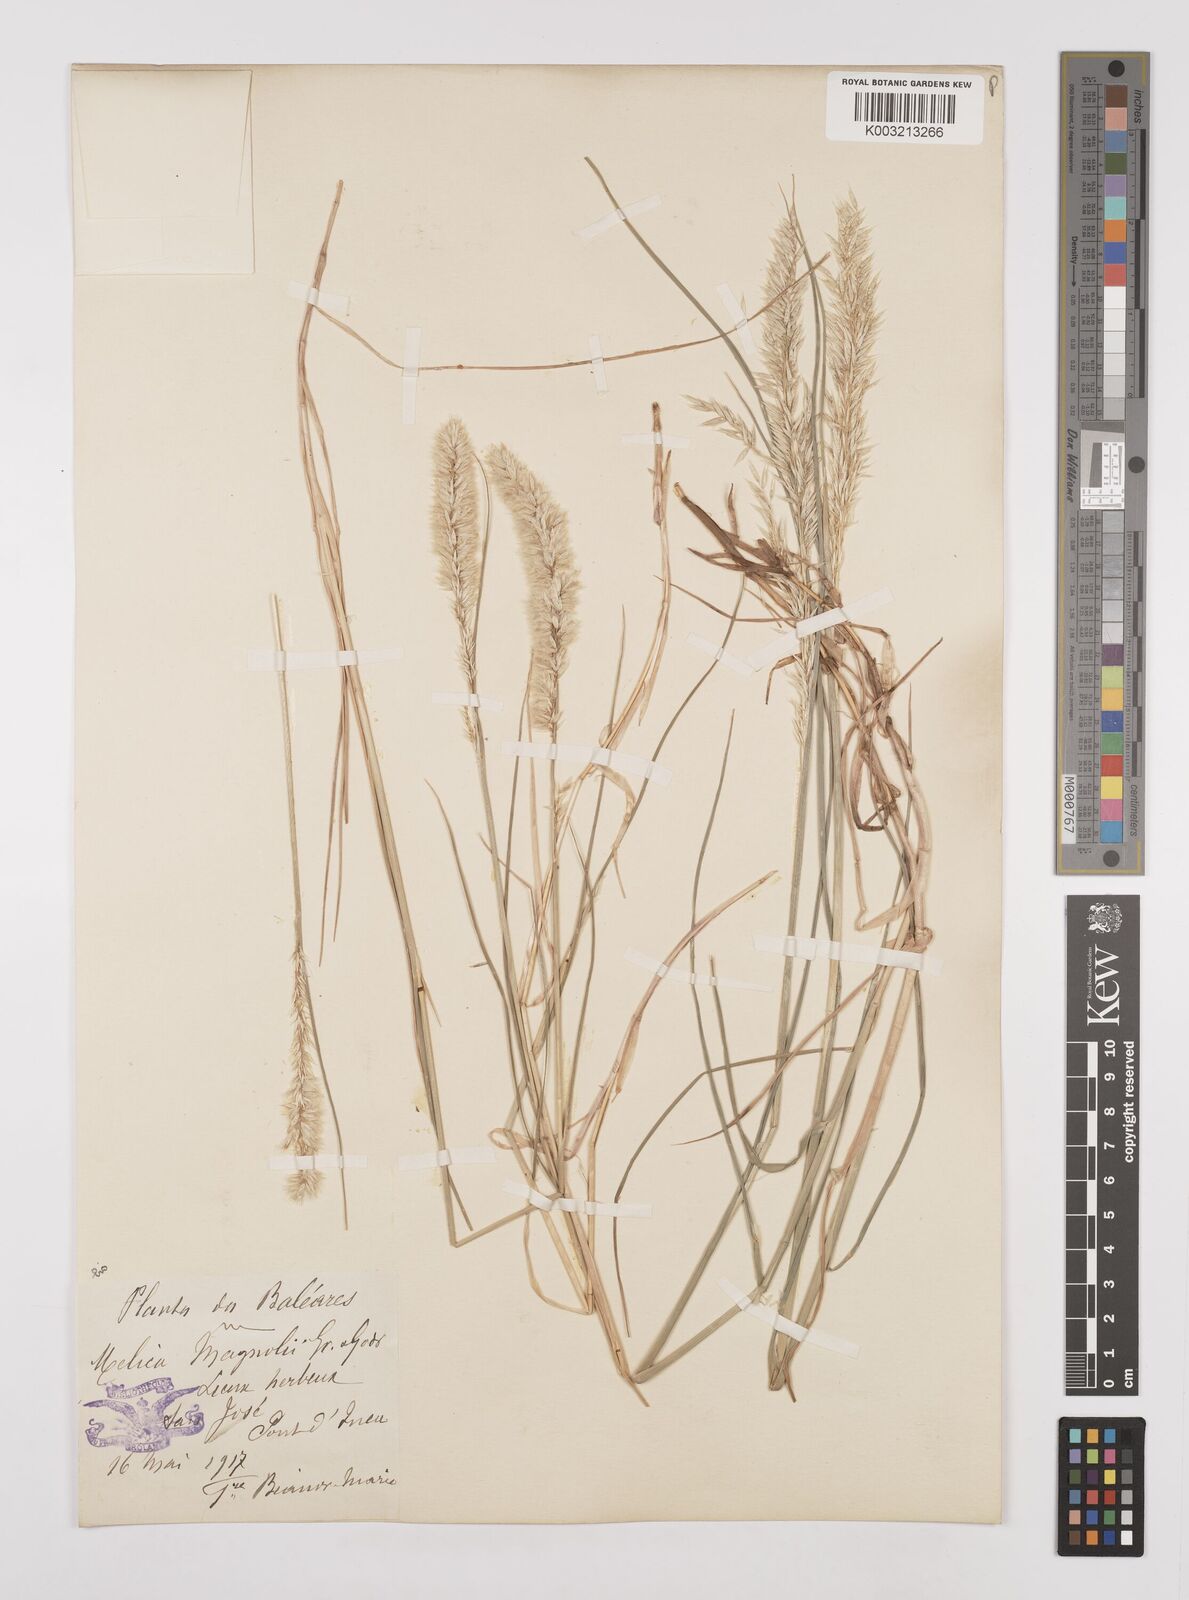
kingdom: Plantae
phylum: Tracheophyta
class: Liliopsida
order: Poales
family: Poaceae
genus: Melica
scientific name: Melica ciliata
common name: Hairy melicgrass
